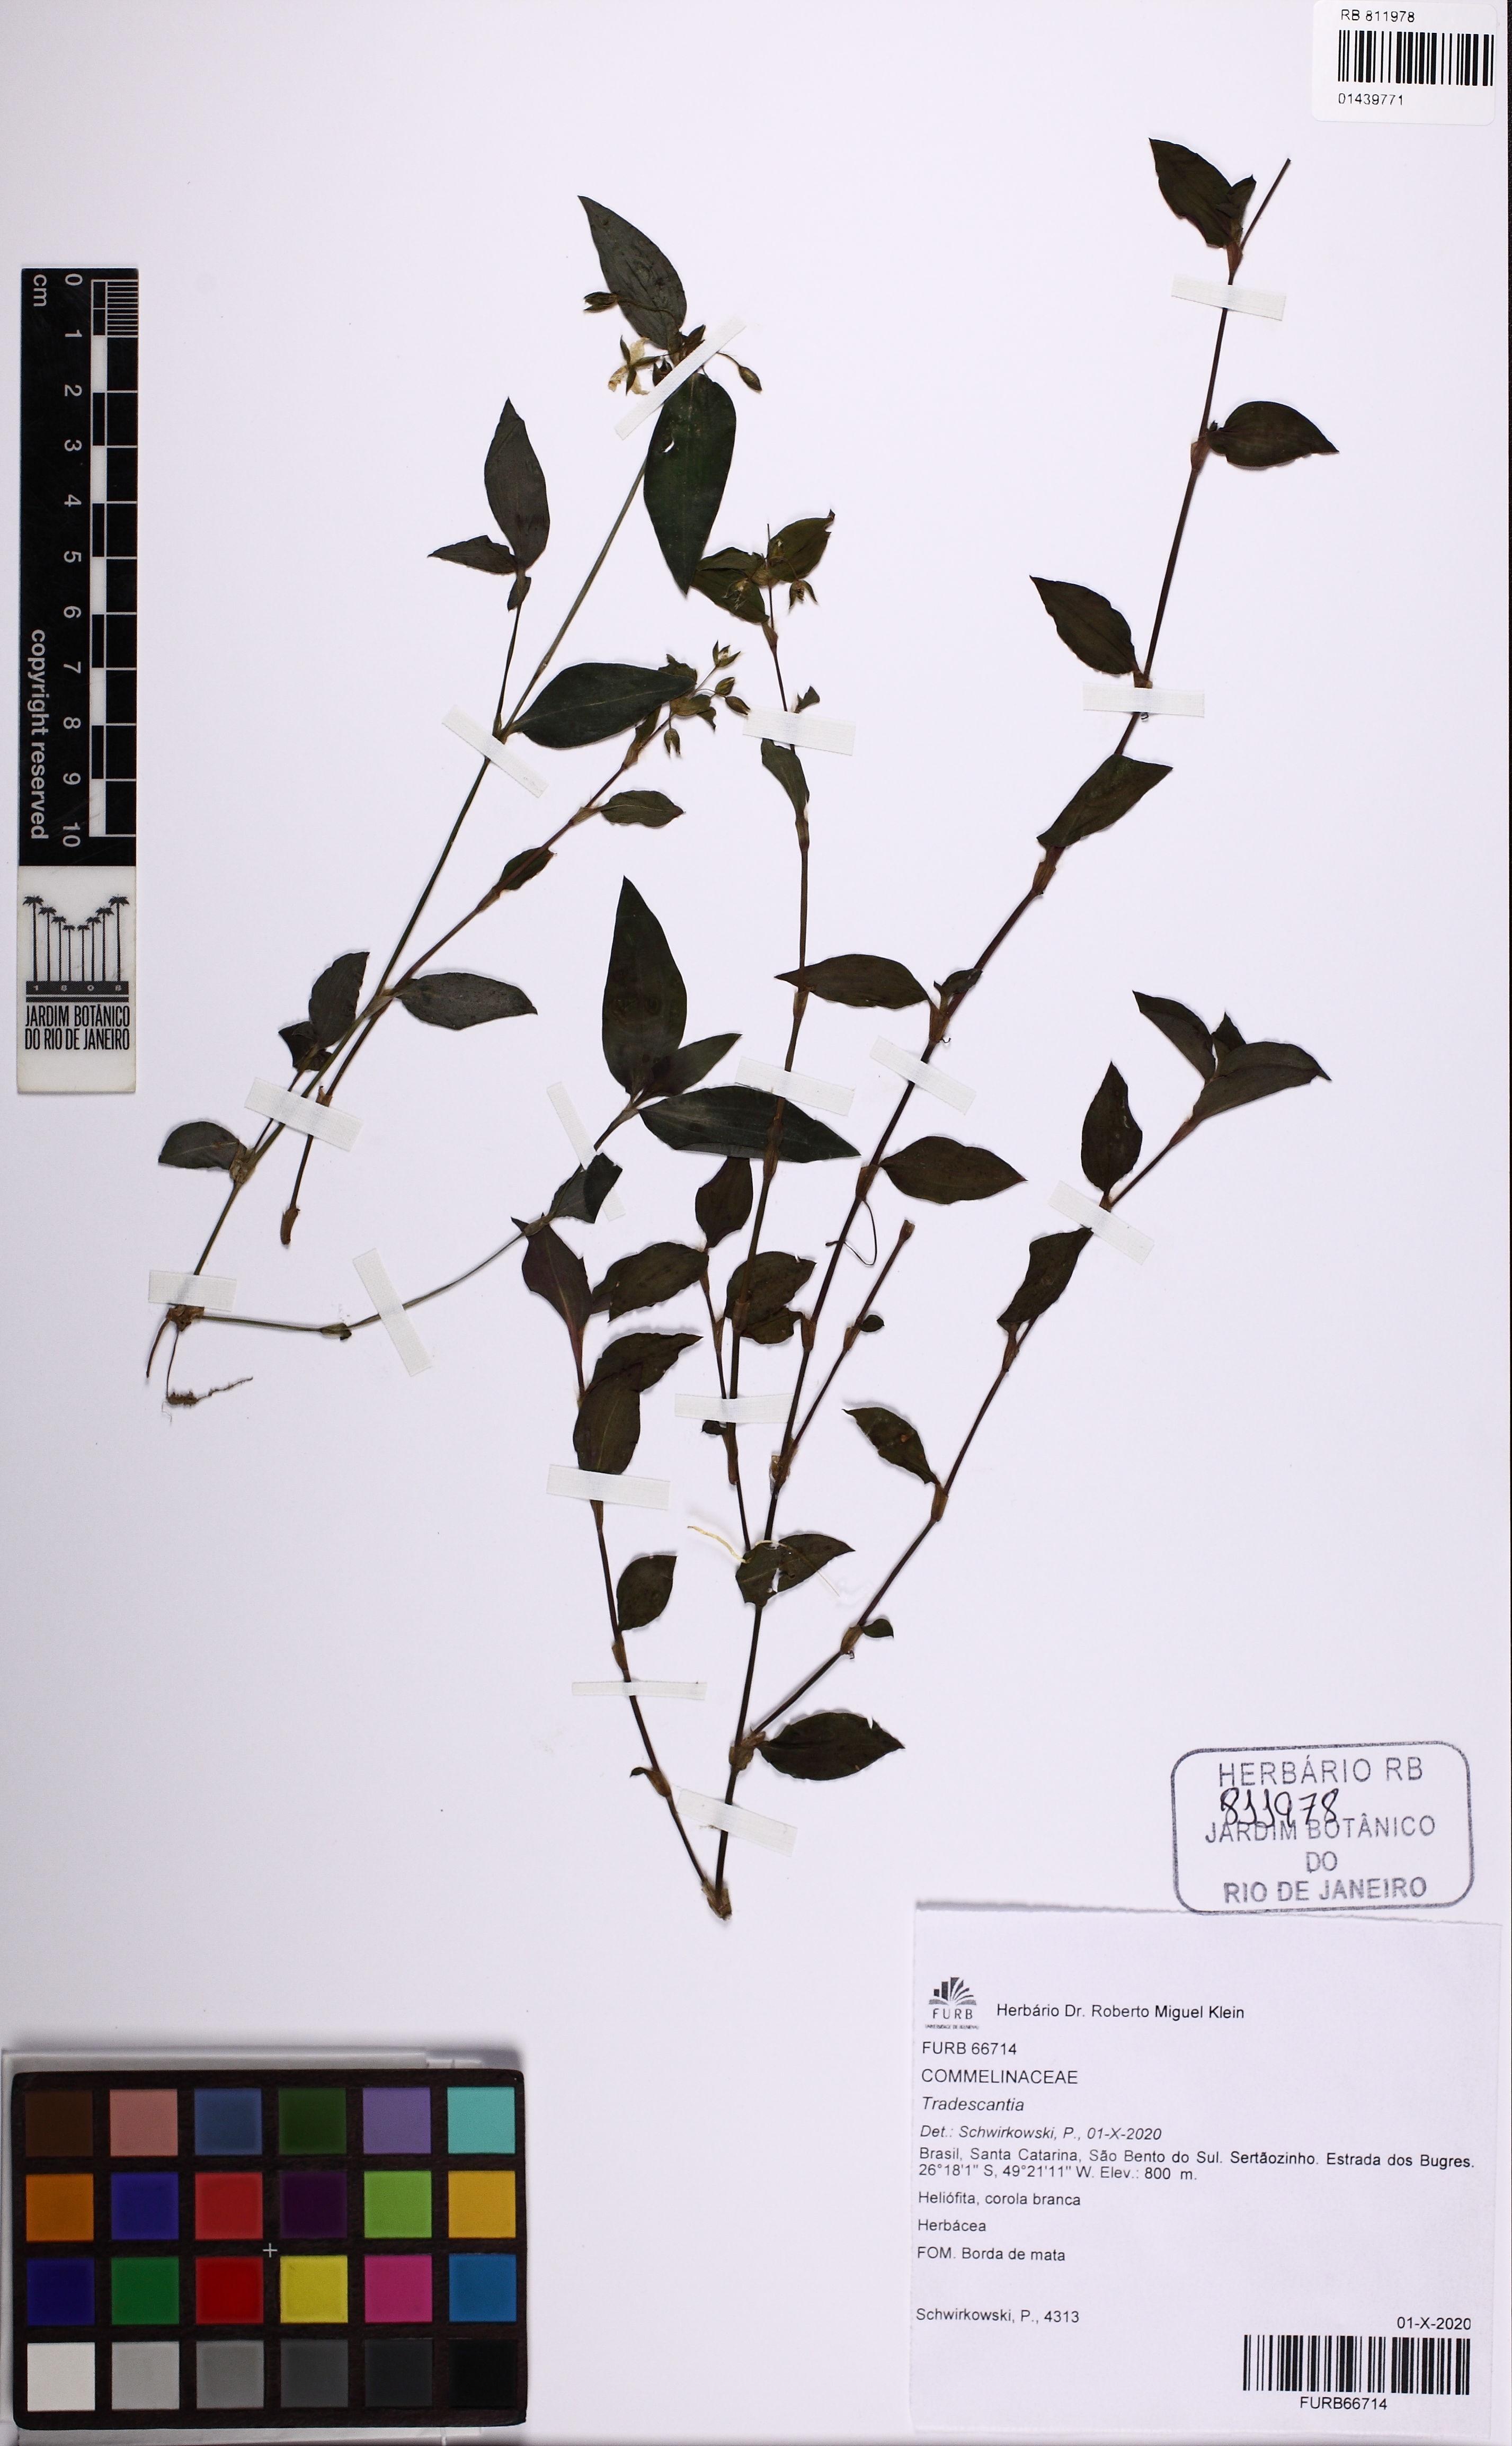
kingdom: Plantae
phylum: Tracheophyta
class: Liliopsida
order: Commelinales
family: Commelinaceae
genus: Tradescantia
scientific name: Tradescantia
